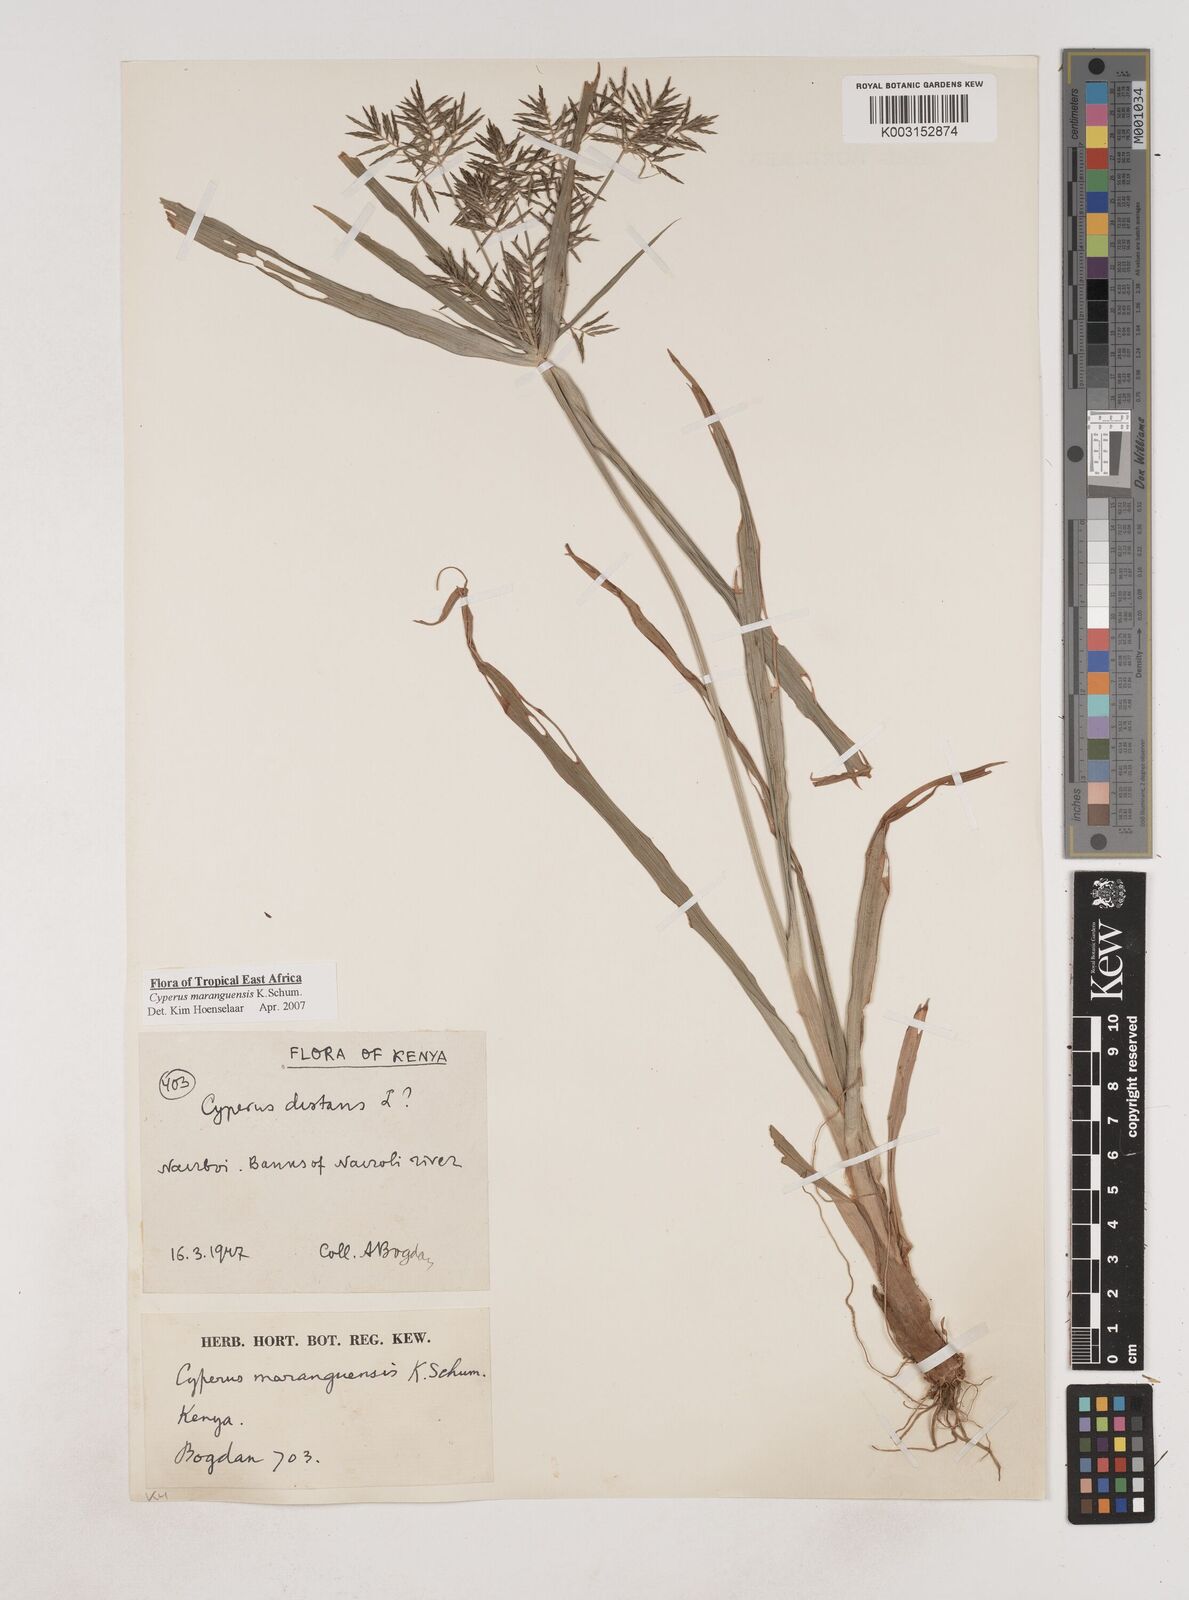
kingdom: Plantae
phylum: Tracheophyta
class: Liliopsida
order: Poales
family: Cyperaceae
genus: Cyperus
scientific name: Cyperus maranguensis
